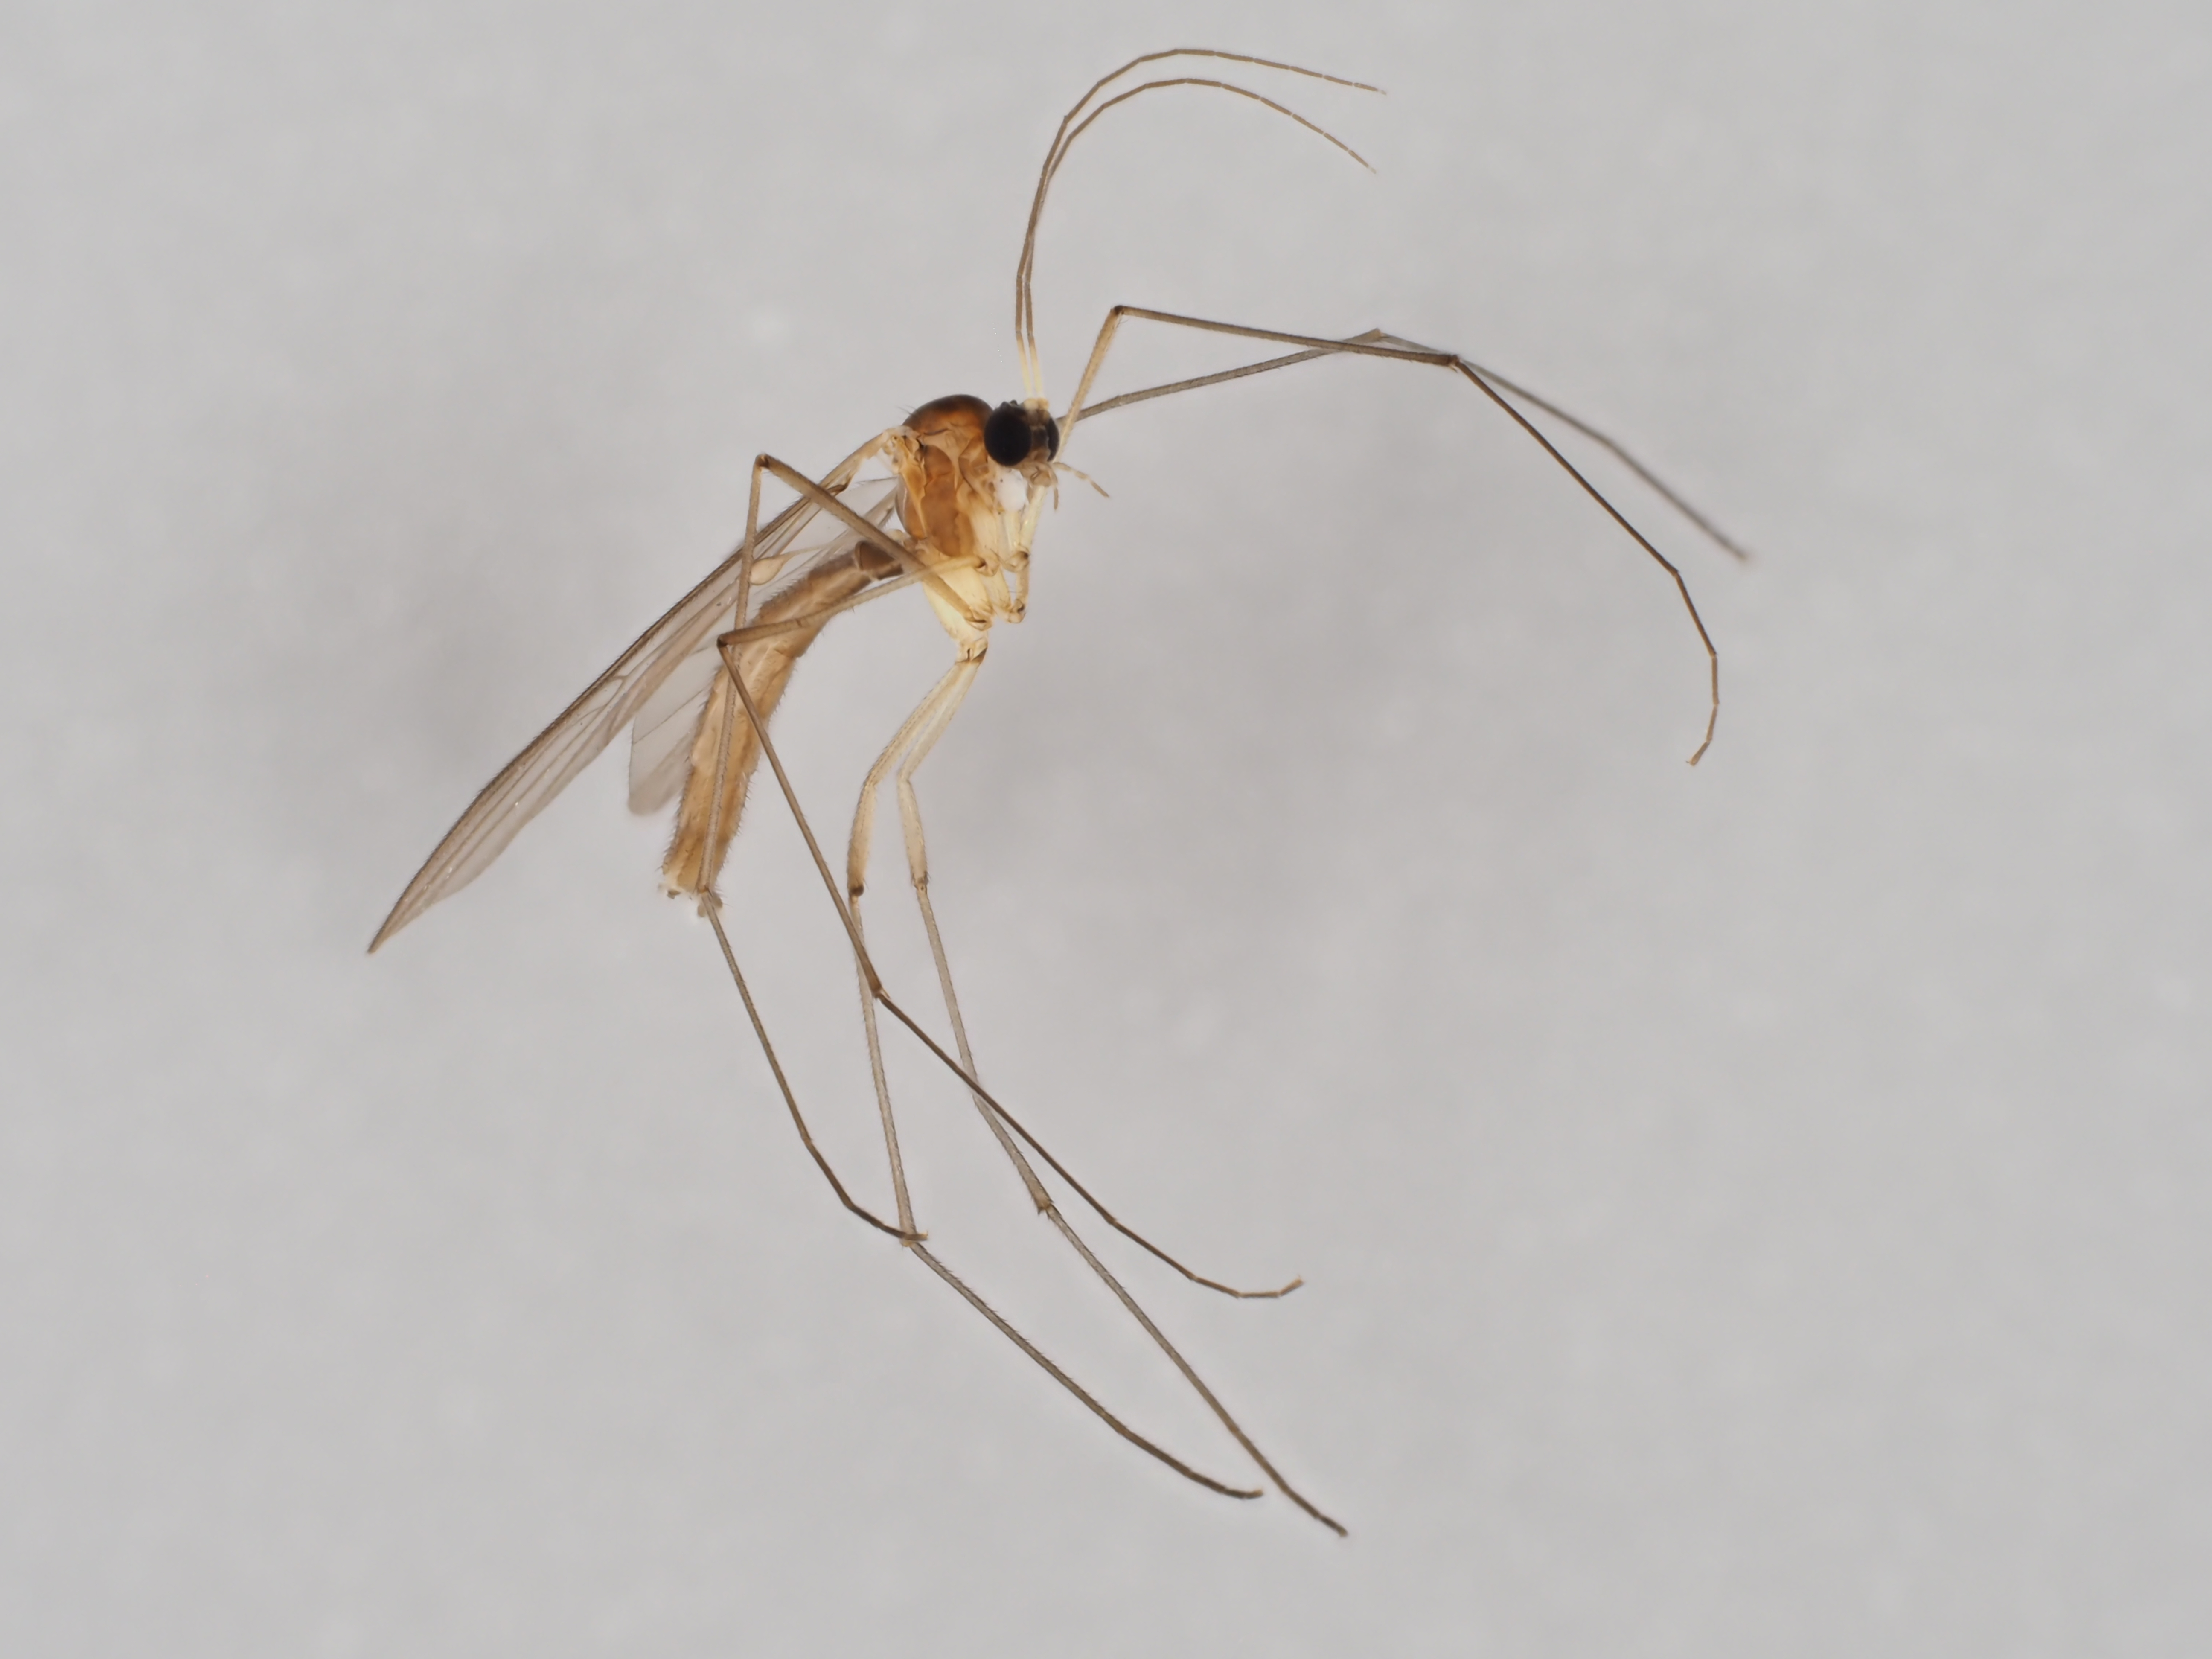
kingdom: Animalia
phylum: Arthropoda
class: Insecta
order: Diptera
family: Bolitophilidae
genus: Bolitophila
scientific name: Bolitophila cinerea
